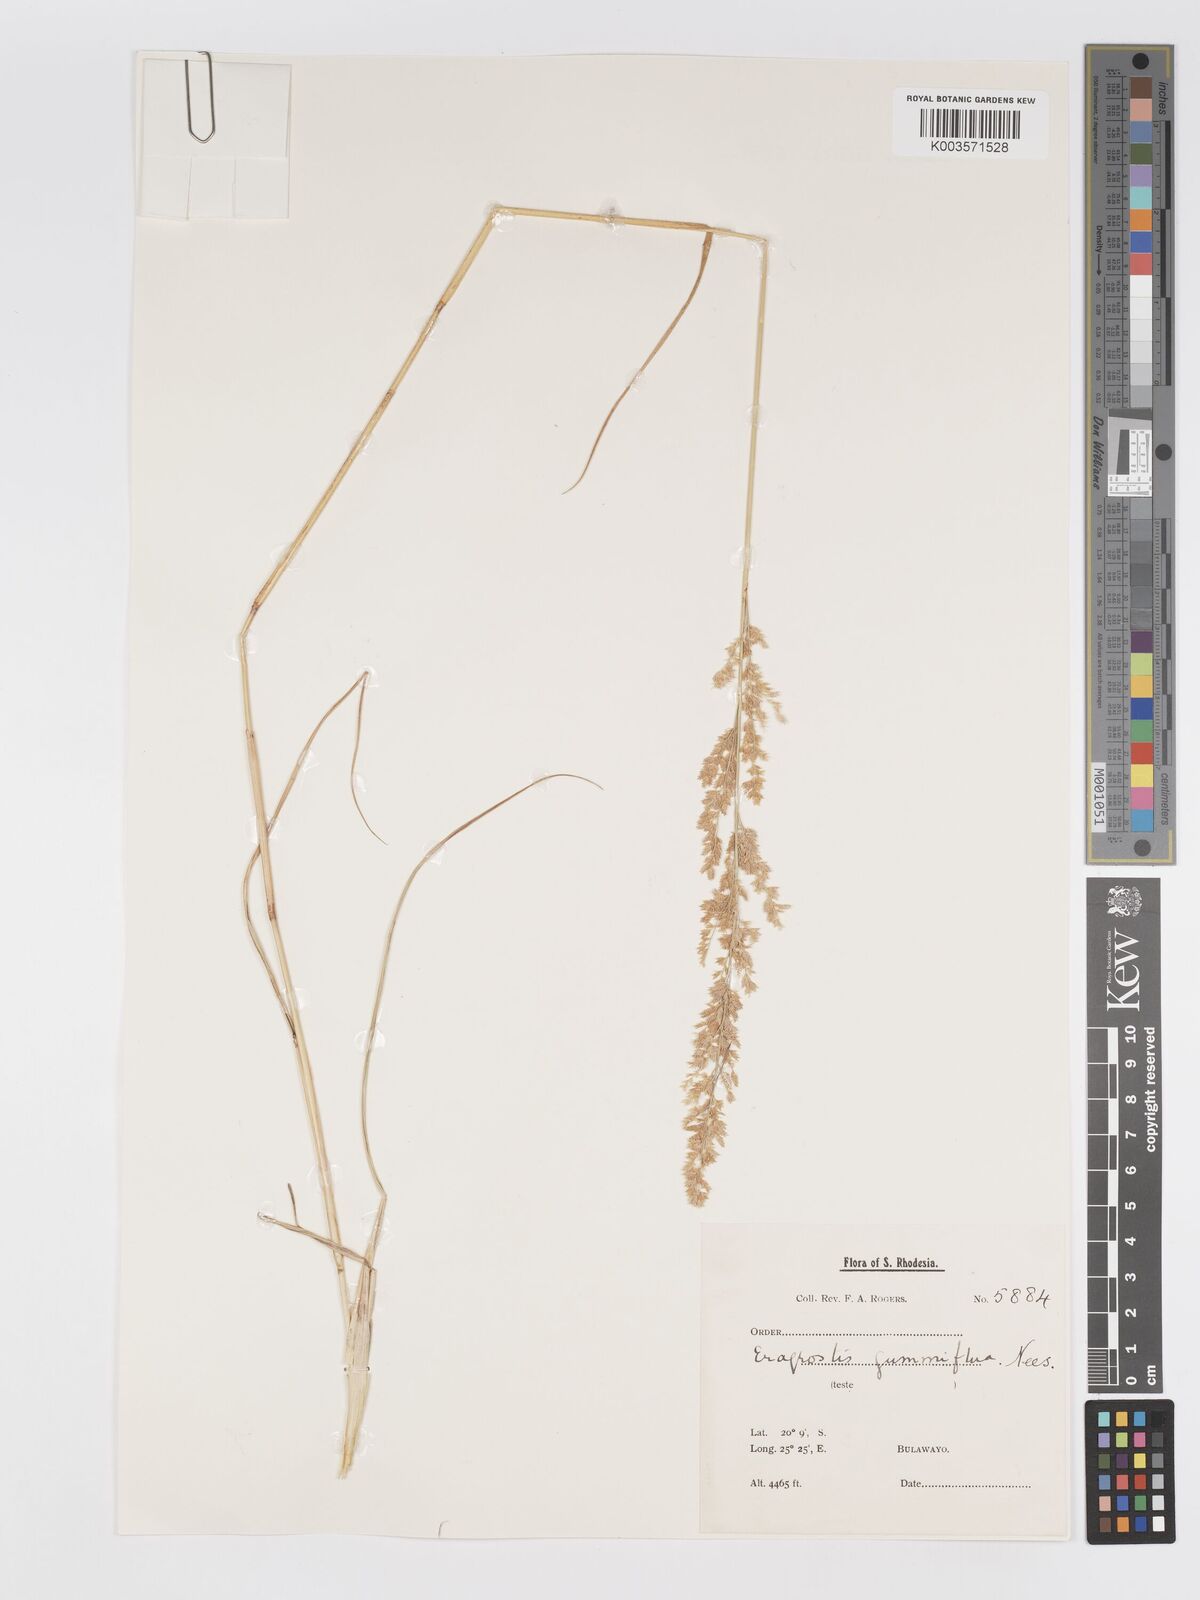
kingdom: Plantae
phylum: Tracheophyta
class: Liliopsida
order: Poales
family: Poaceae
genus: Eragrostis
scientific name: Eragrostis gummiflua
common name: Gum grass
